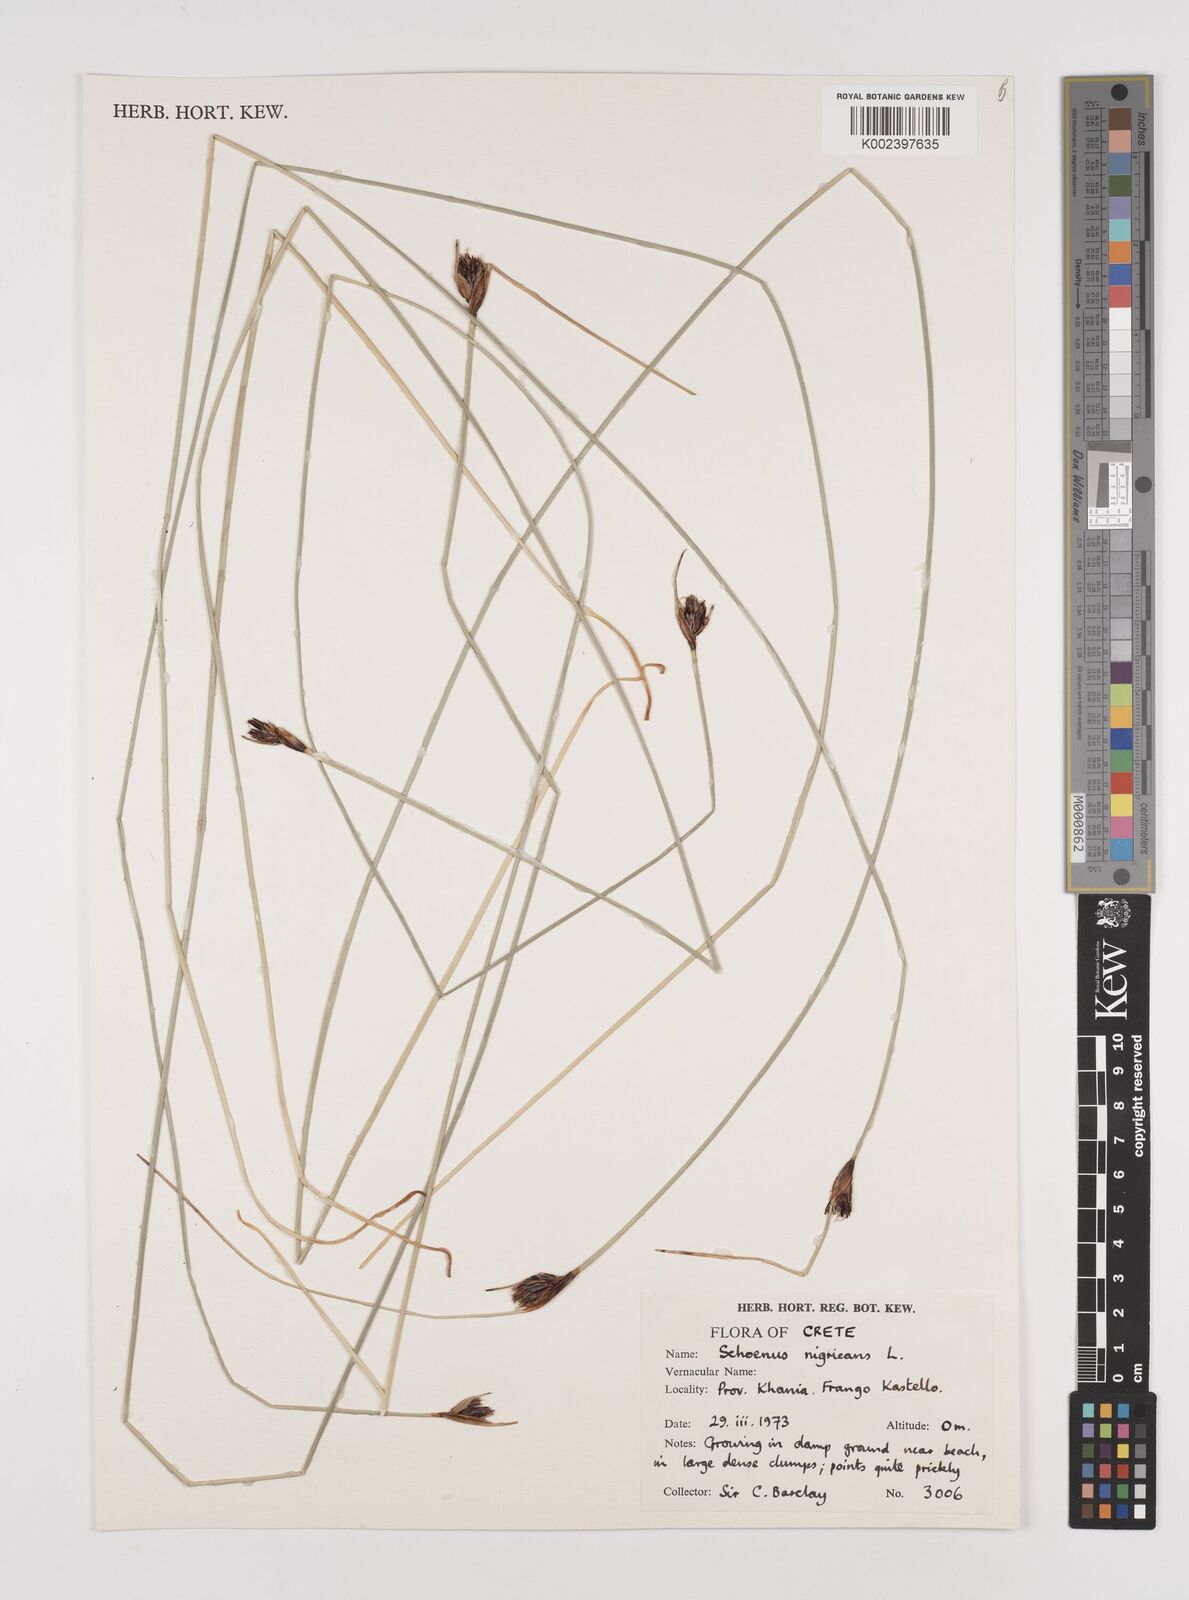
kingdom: Plantae
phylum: Tracheophyta
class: Liliopsida
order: Poales
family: Cyperaceae
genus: Schoenus
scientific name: Schoenus nigricans
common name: Black bog-rush
